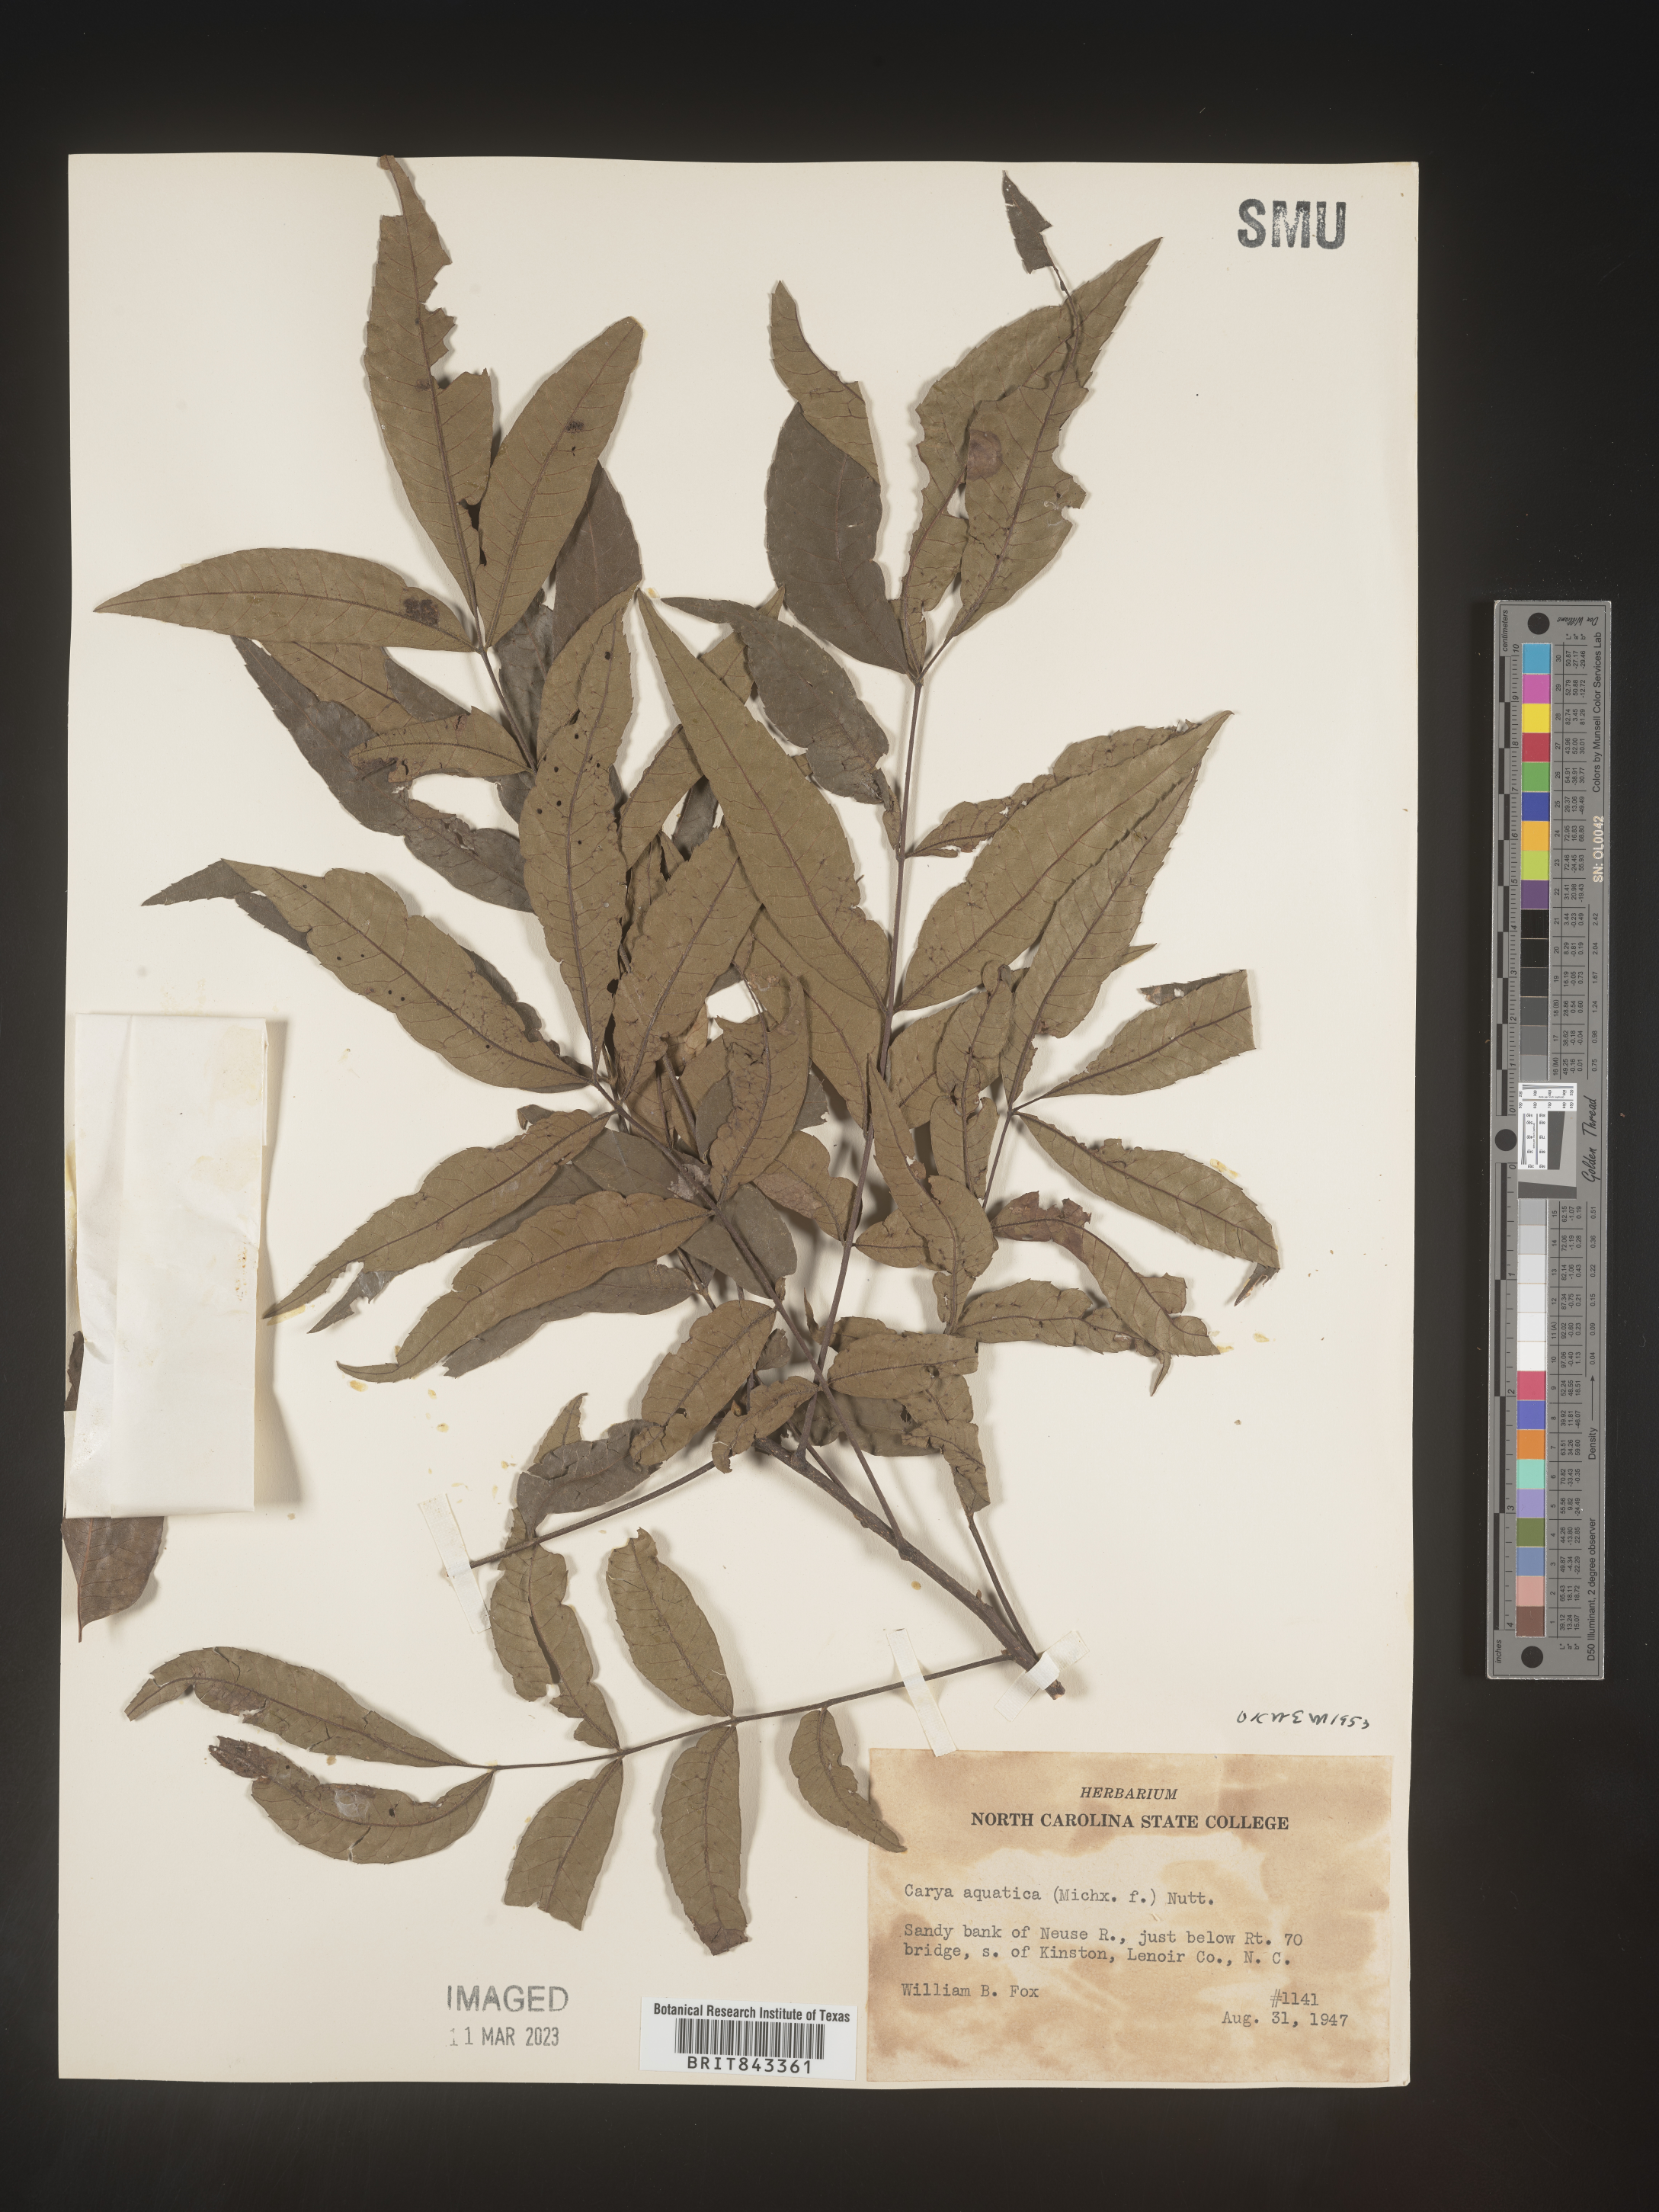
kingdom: Plantae
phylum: Tracheophyta
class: Magnoliopsida
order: Fagales
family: Juglandaceae
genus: Carya
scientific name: Carya aquatica
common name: Water hickory
